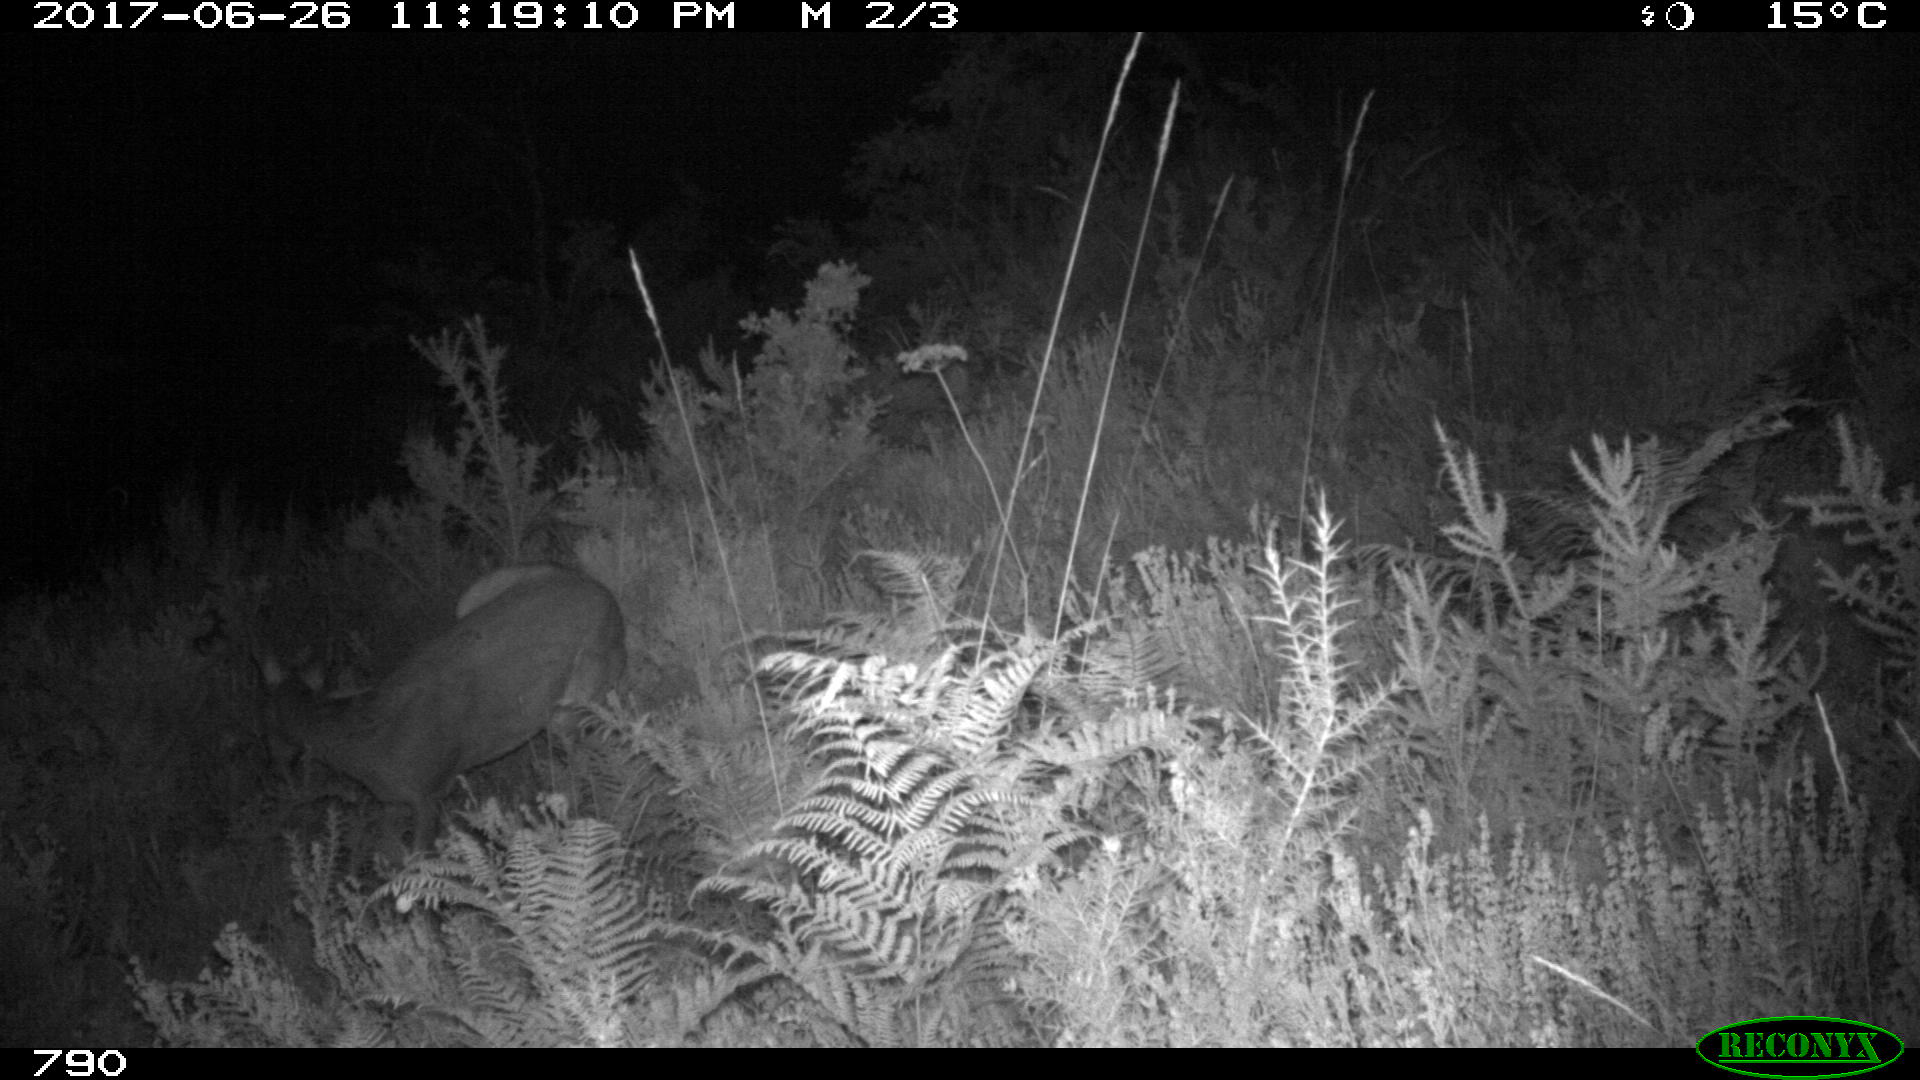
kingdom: Animalia
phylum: Chordata
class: Mammalia
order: Artiodactyla
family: Cervidae
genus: Capreolus
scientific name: Capreolus capreolus
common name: Western roe deer
